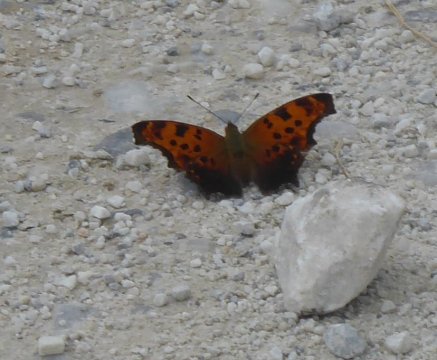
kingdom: Animalia
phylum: Arthropoda
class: Insecta
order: Lepidoptera
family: Nymphalidae
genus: Polygonia
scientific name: Polygonia comma
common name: Eastern Comma
